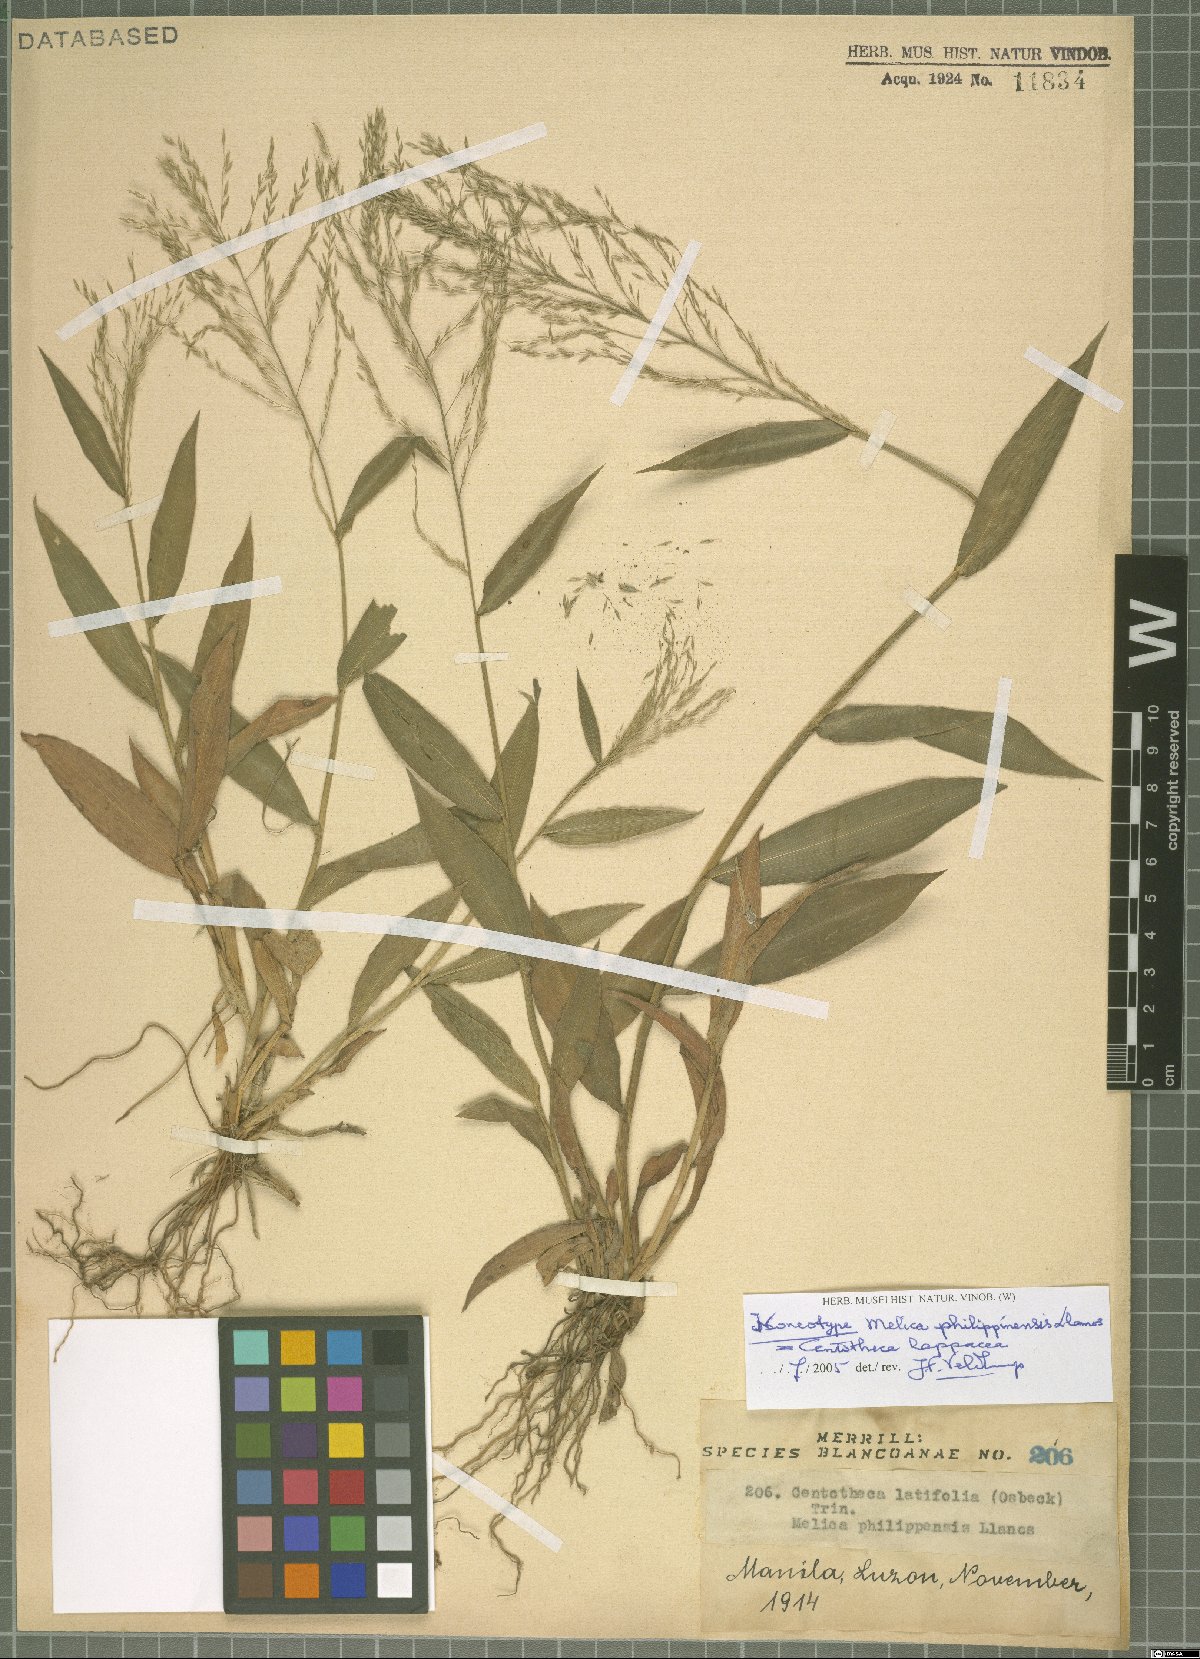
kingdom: Plantae
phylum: Tracheophyta
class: Liliopsida
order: Poales
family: Poaceae
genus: Centotheca
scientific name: Centotheca lappacea
